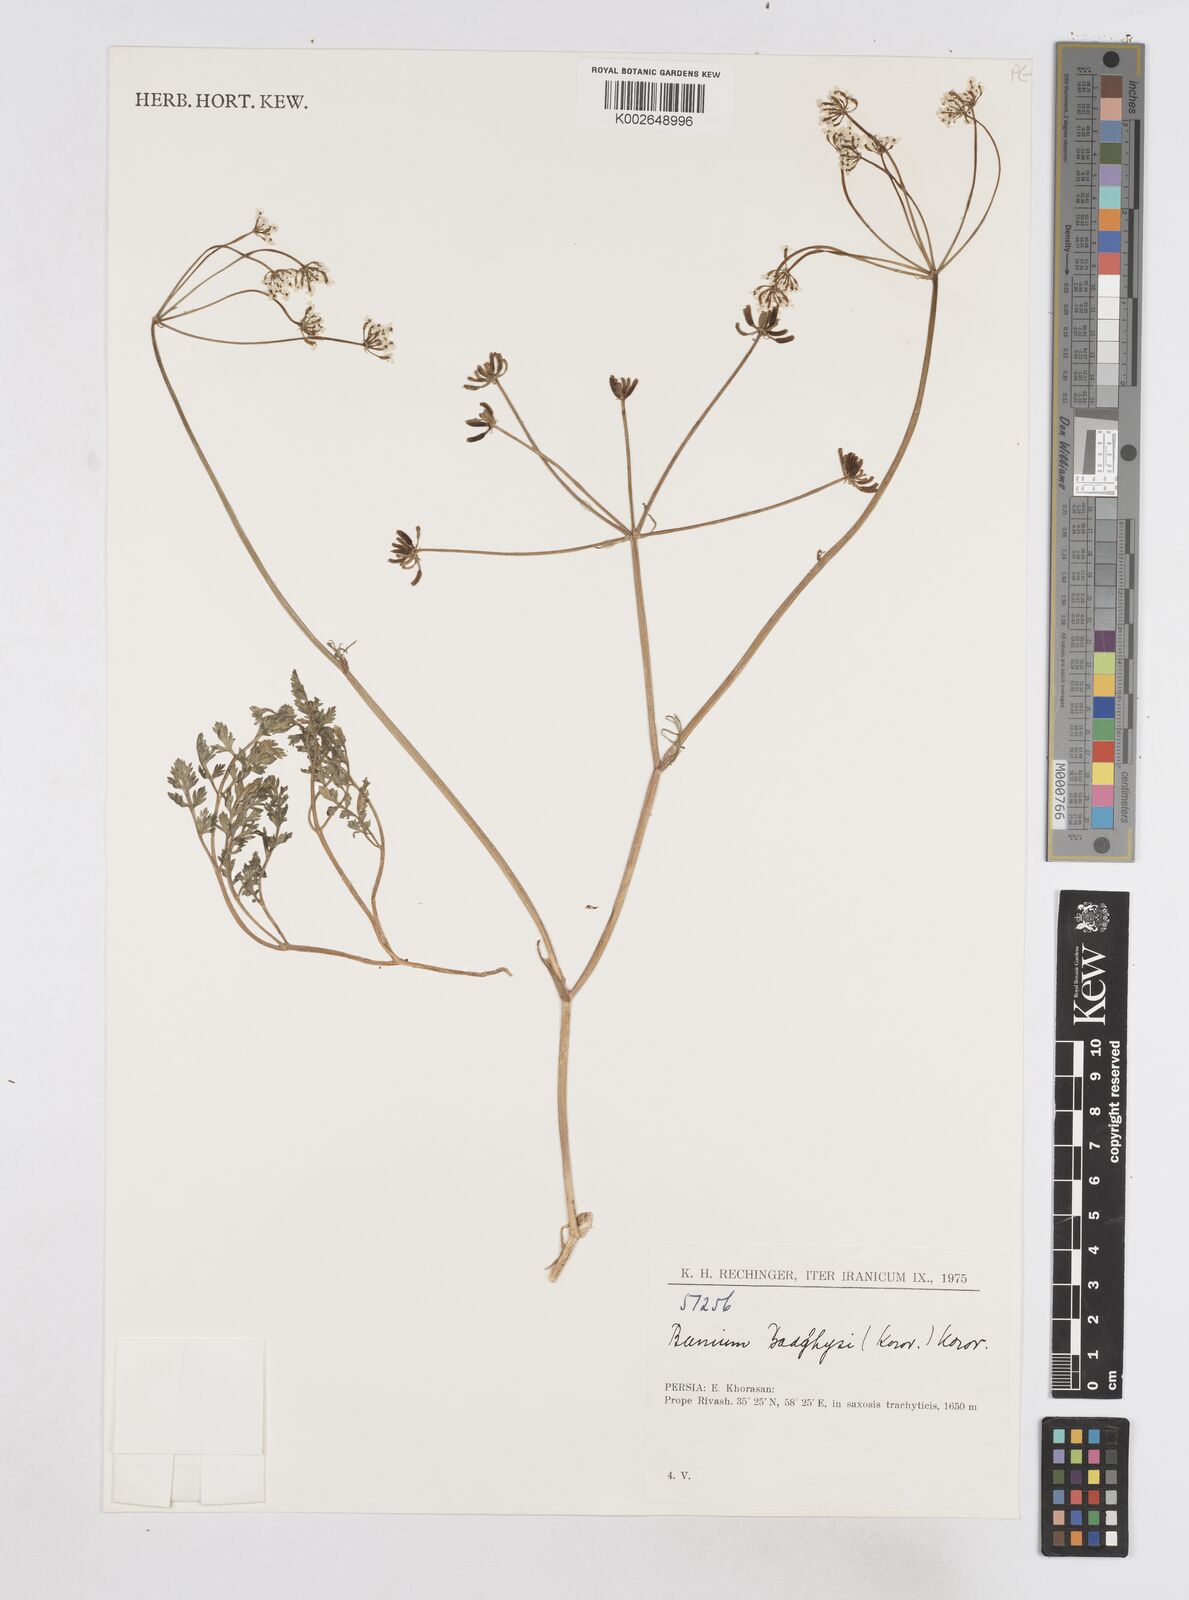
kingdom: Plantae
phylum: Tracheophyta
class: Magnoliopsida
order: Apiales
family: Apiaceae
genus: Elwendia
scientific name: Elwendia afghanica
